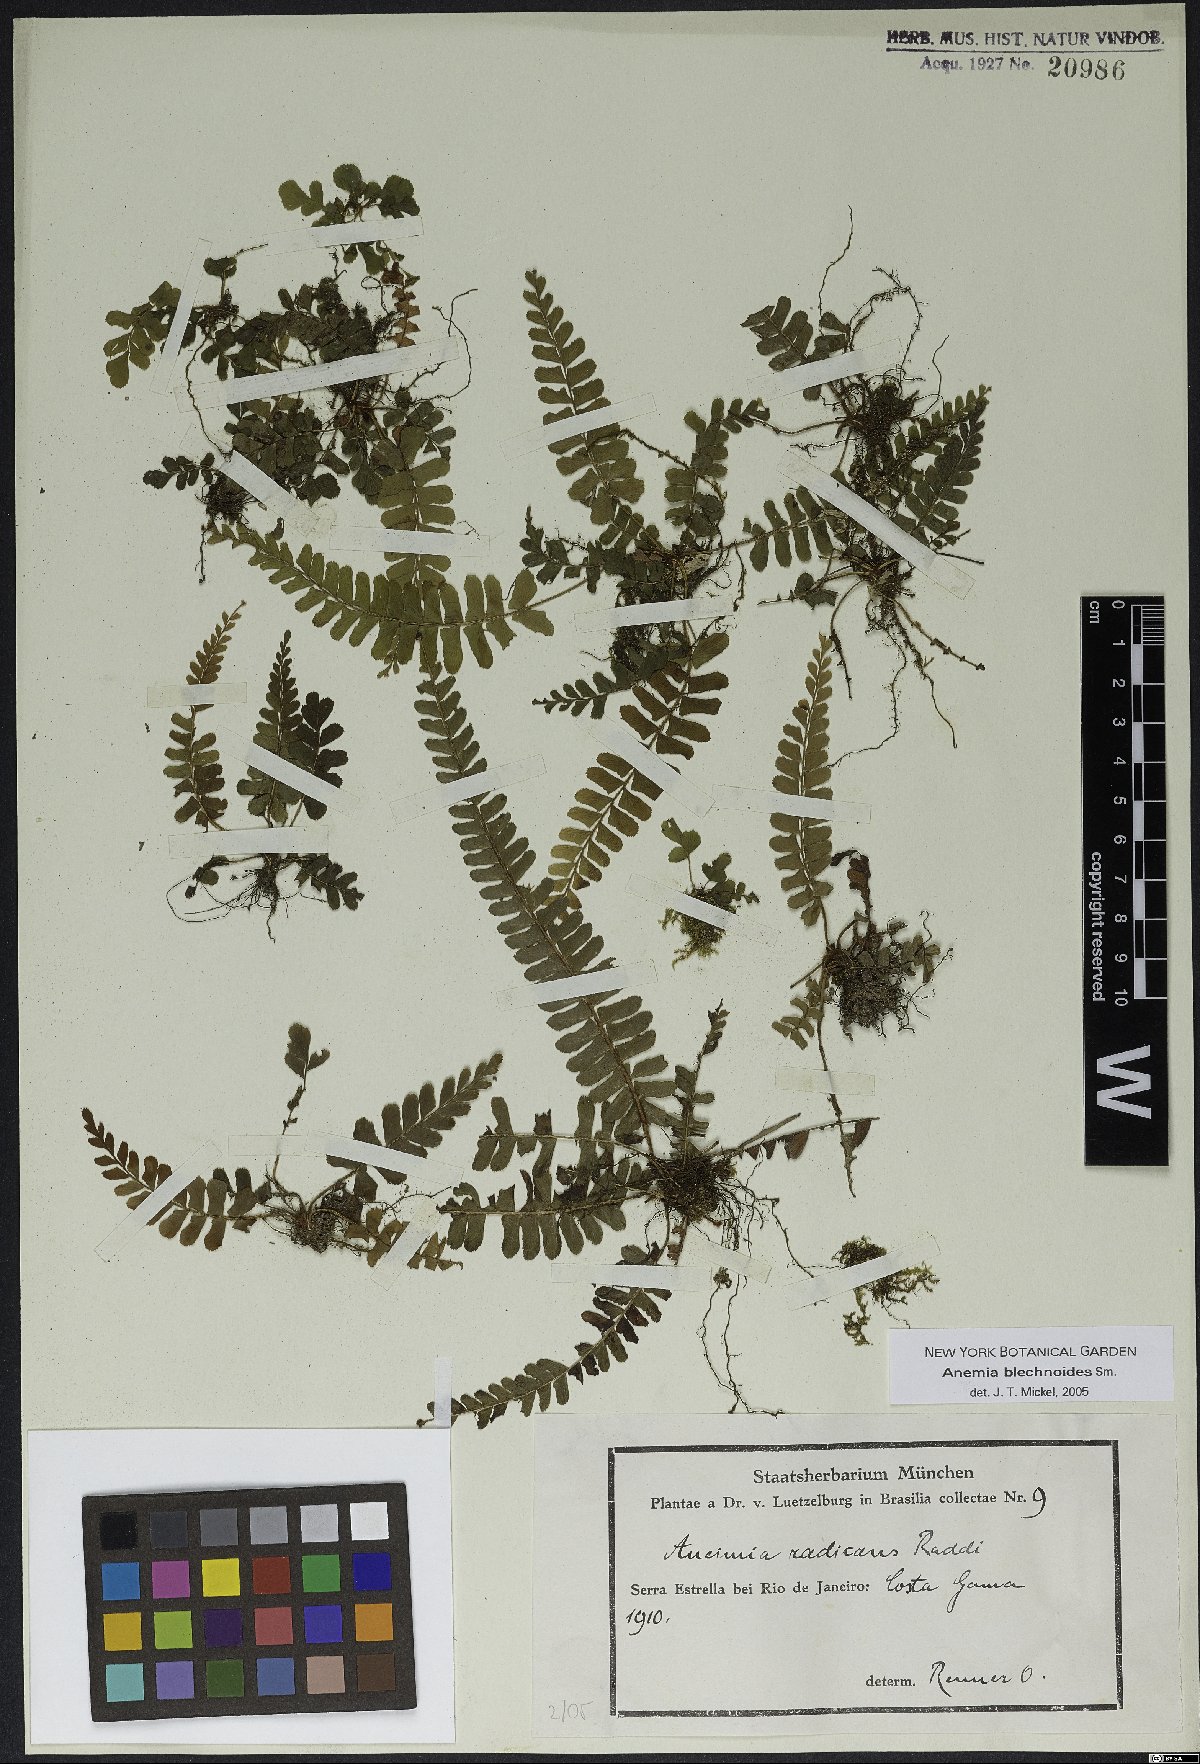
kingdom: Plantae
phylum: Tracheophyta
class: Polypodiopsida
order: Schizaeales
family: Anemiaceae
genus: Anemia
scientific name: Anemia spicantoides
